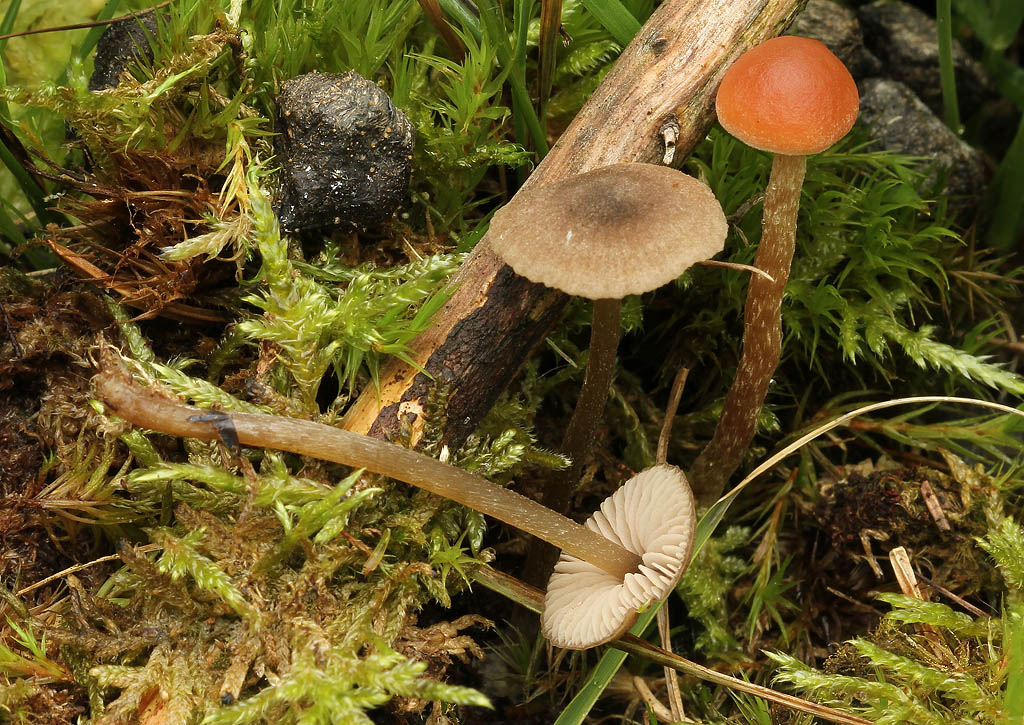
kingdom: Fungi
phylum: Basidiomycota
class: Agaricomycetes
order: Agaricales
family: Entolomataceae
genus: Entoloma
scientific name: Entoloma fernandae
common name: filtet rødblad
